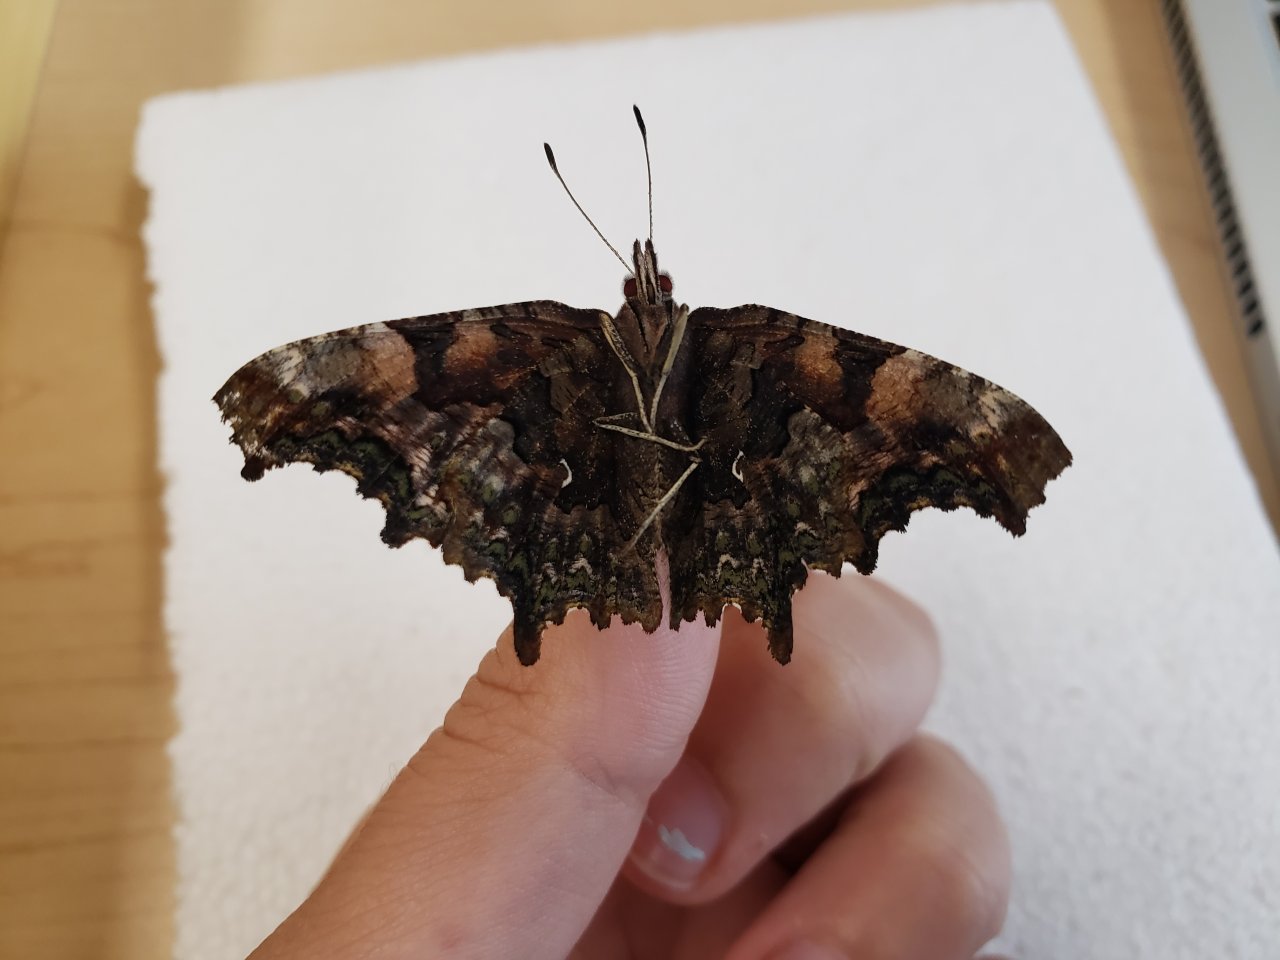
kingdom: Animalia
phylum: Arthropoda
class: Insecta
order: Lepidoptera
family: Nymphalidae
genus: Polygonia
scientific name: Polygonia faunus
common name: Green Comma
